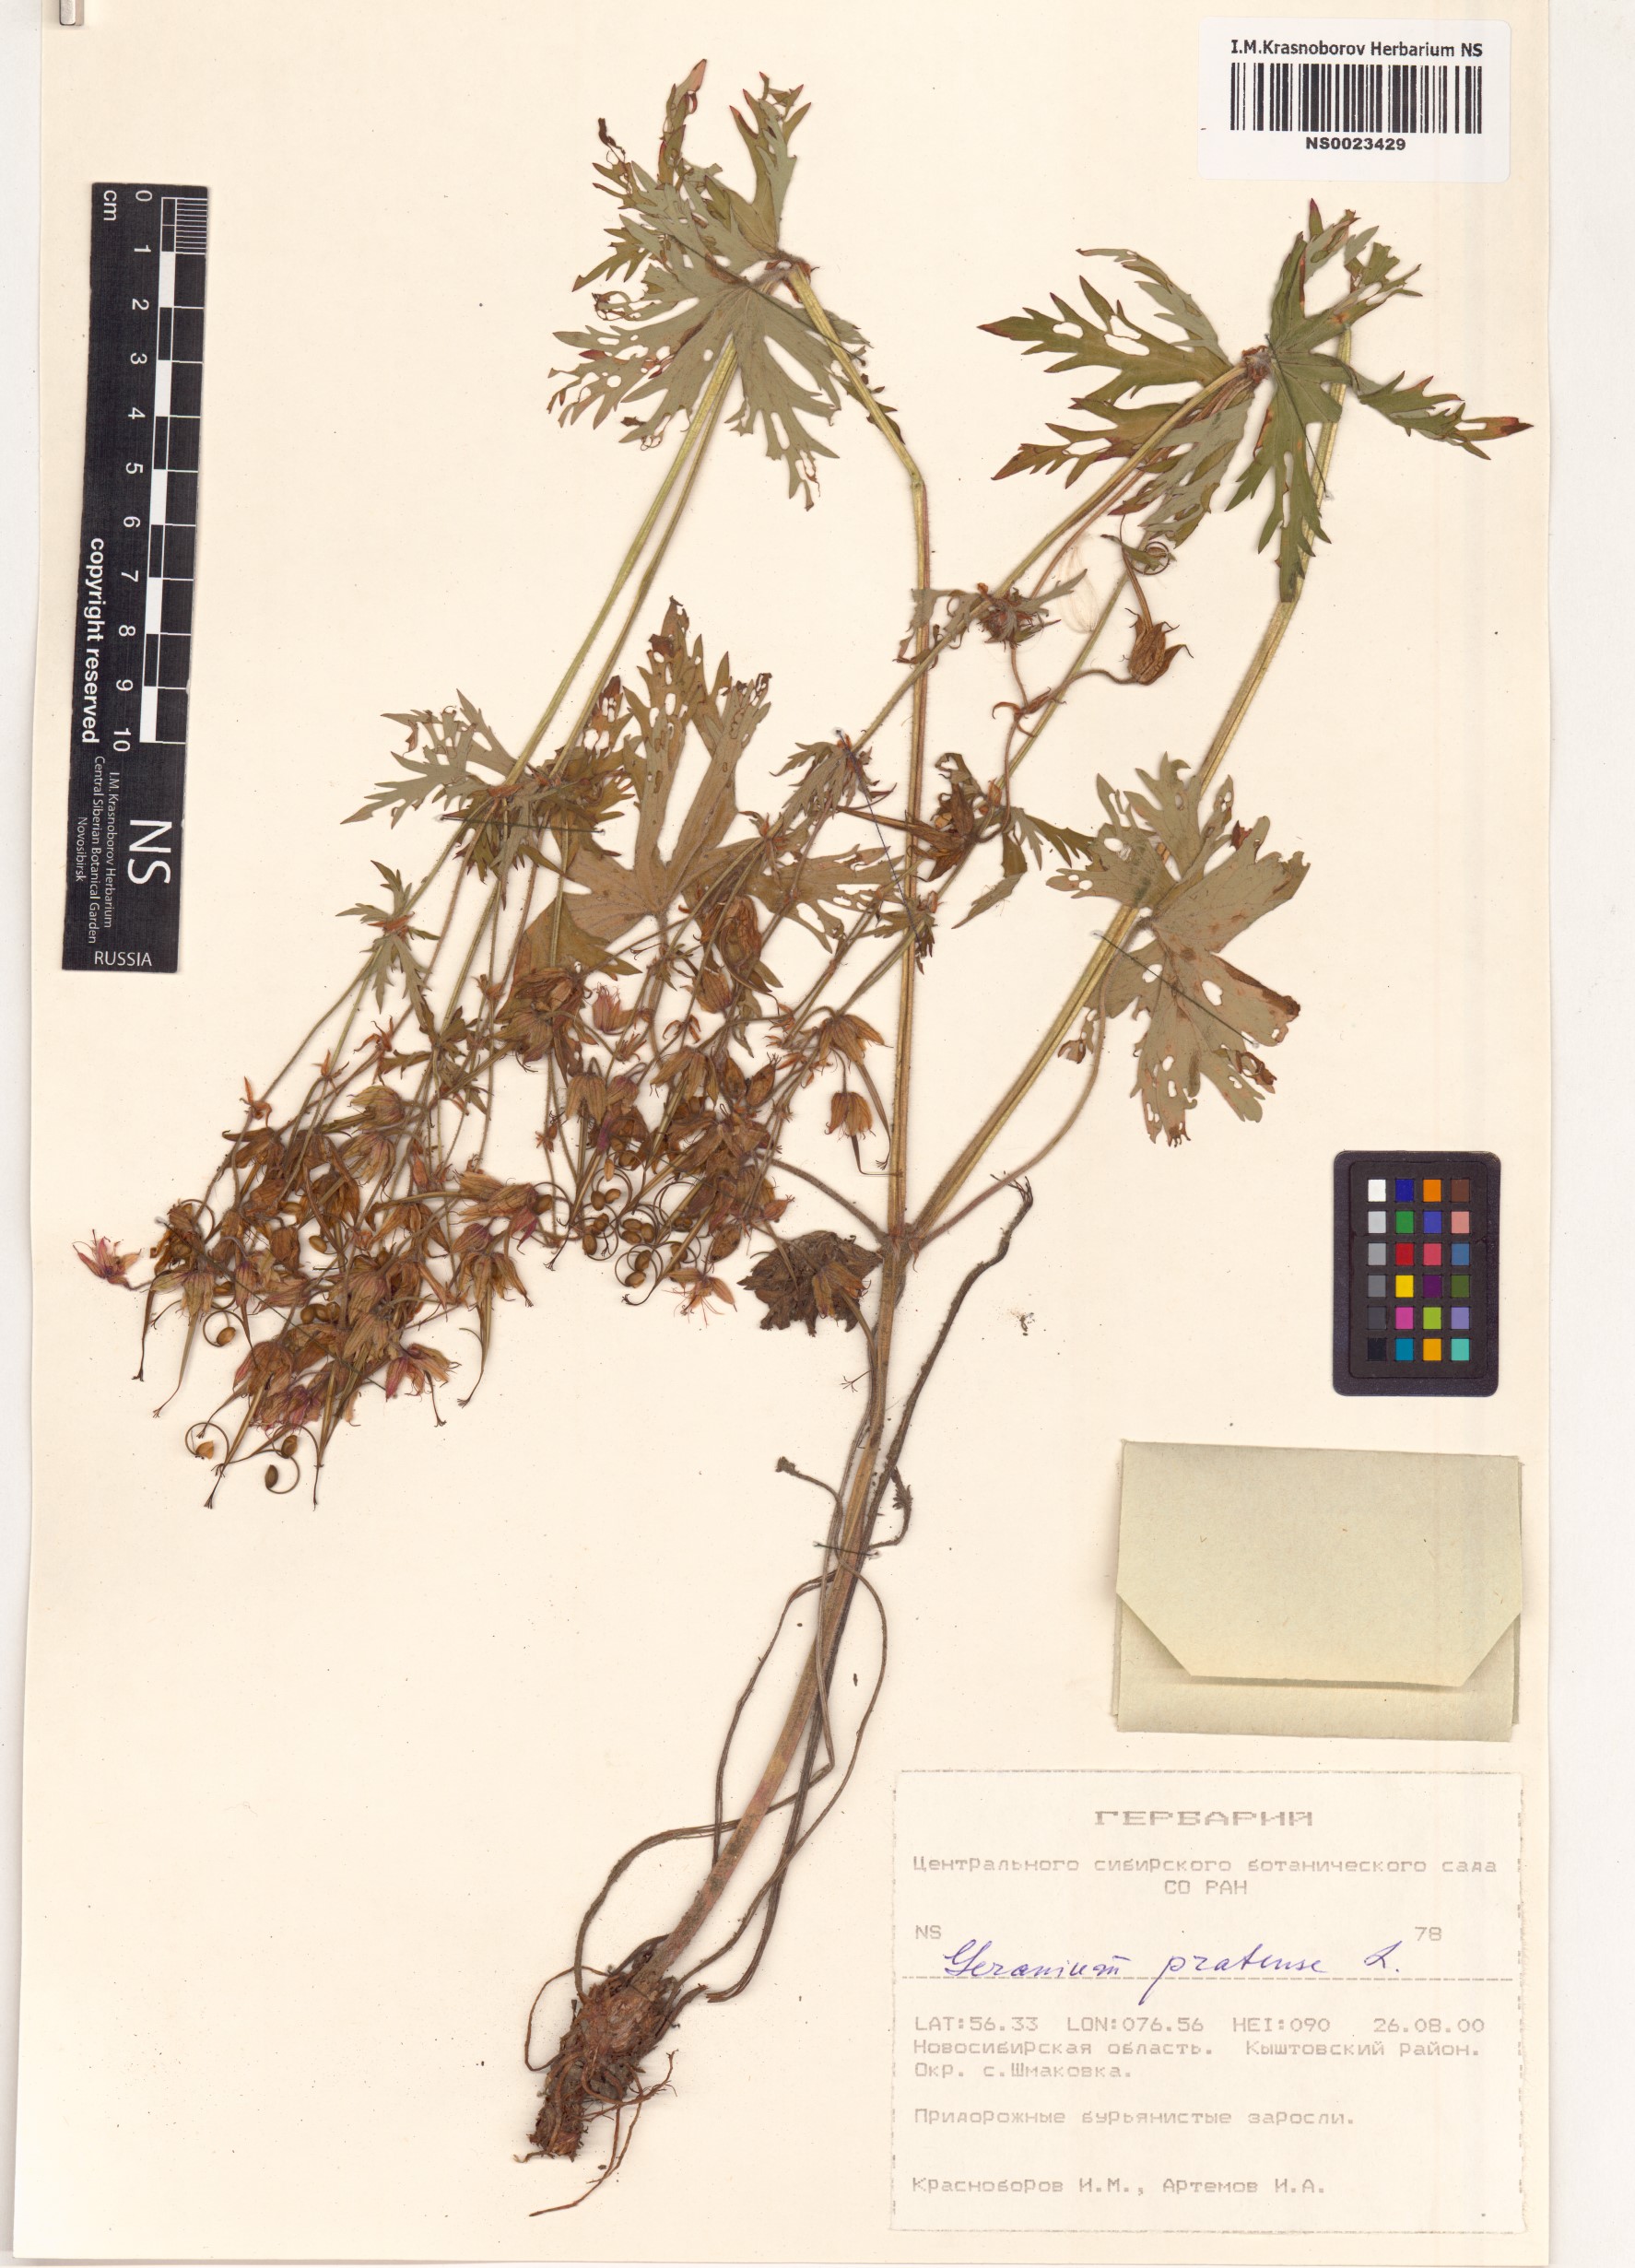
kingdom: Plantae
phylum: Tracheophyta
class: Magnoliopsida
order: Geraniales
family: Geraniaceae
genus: Geranium
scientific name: Geranium pratense
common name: Meadow crane's-bill
